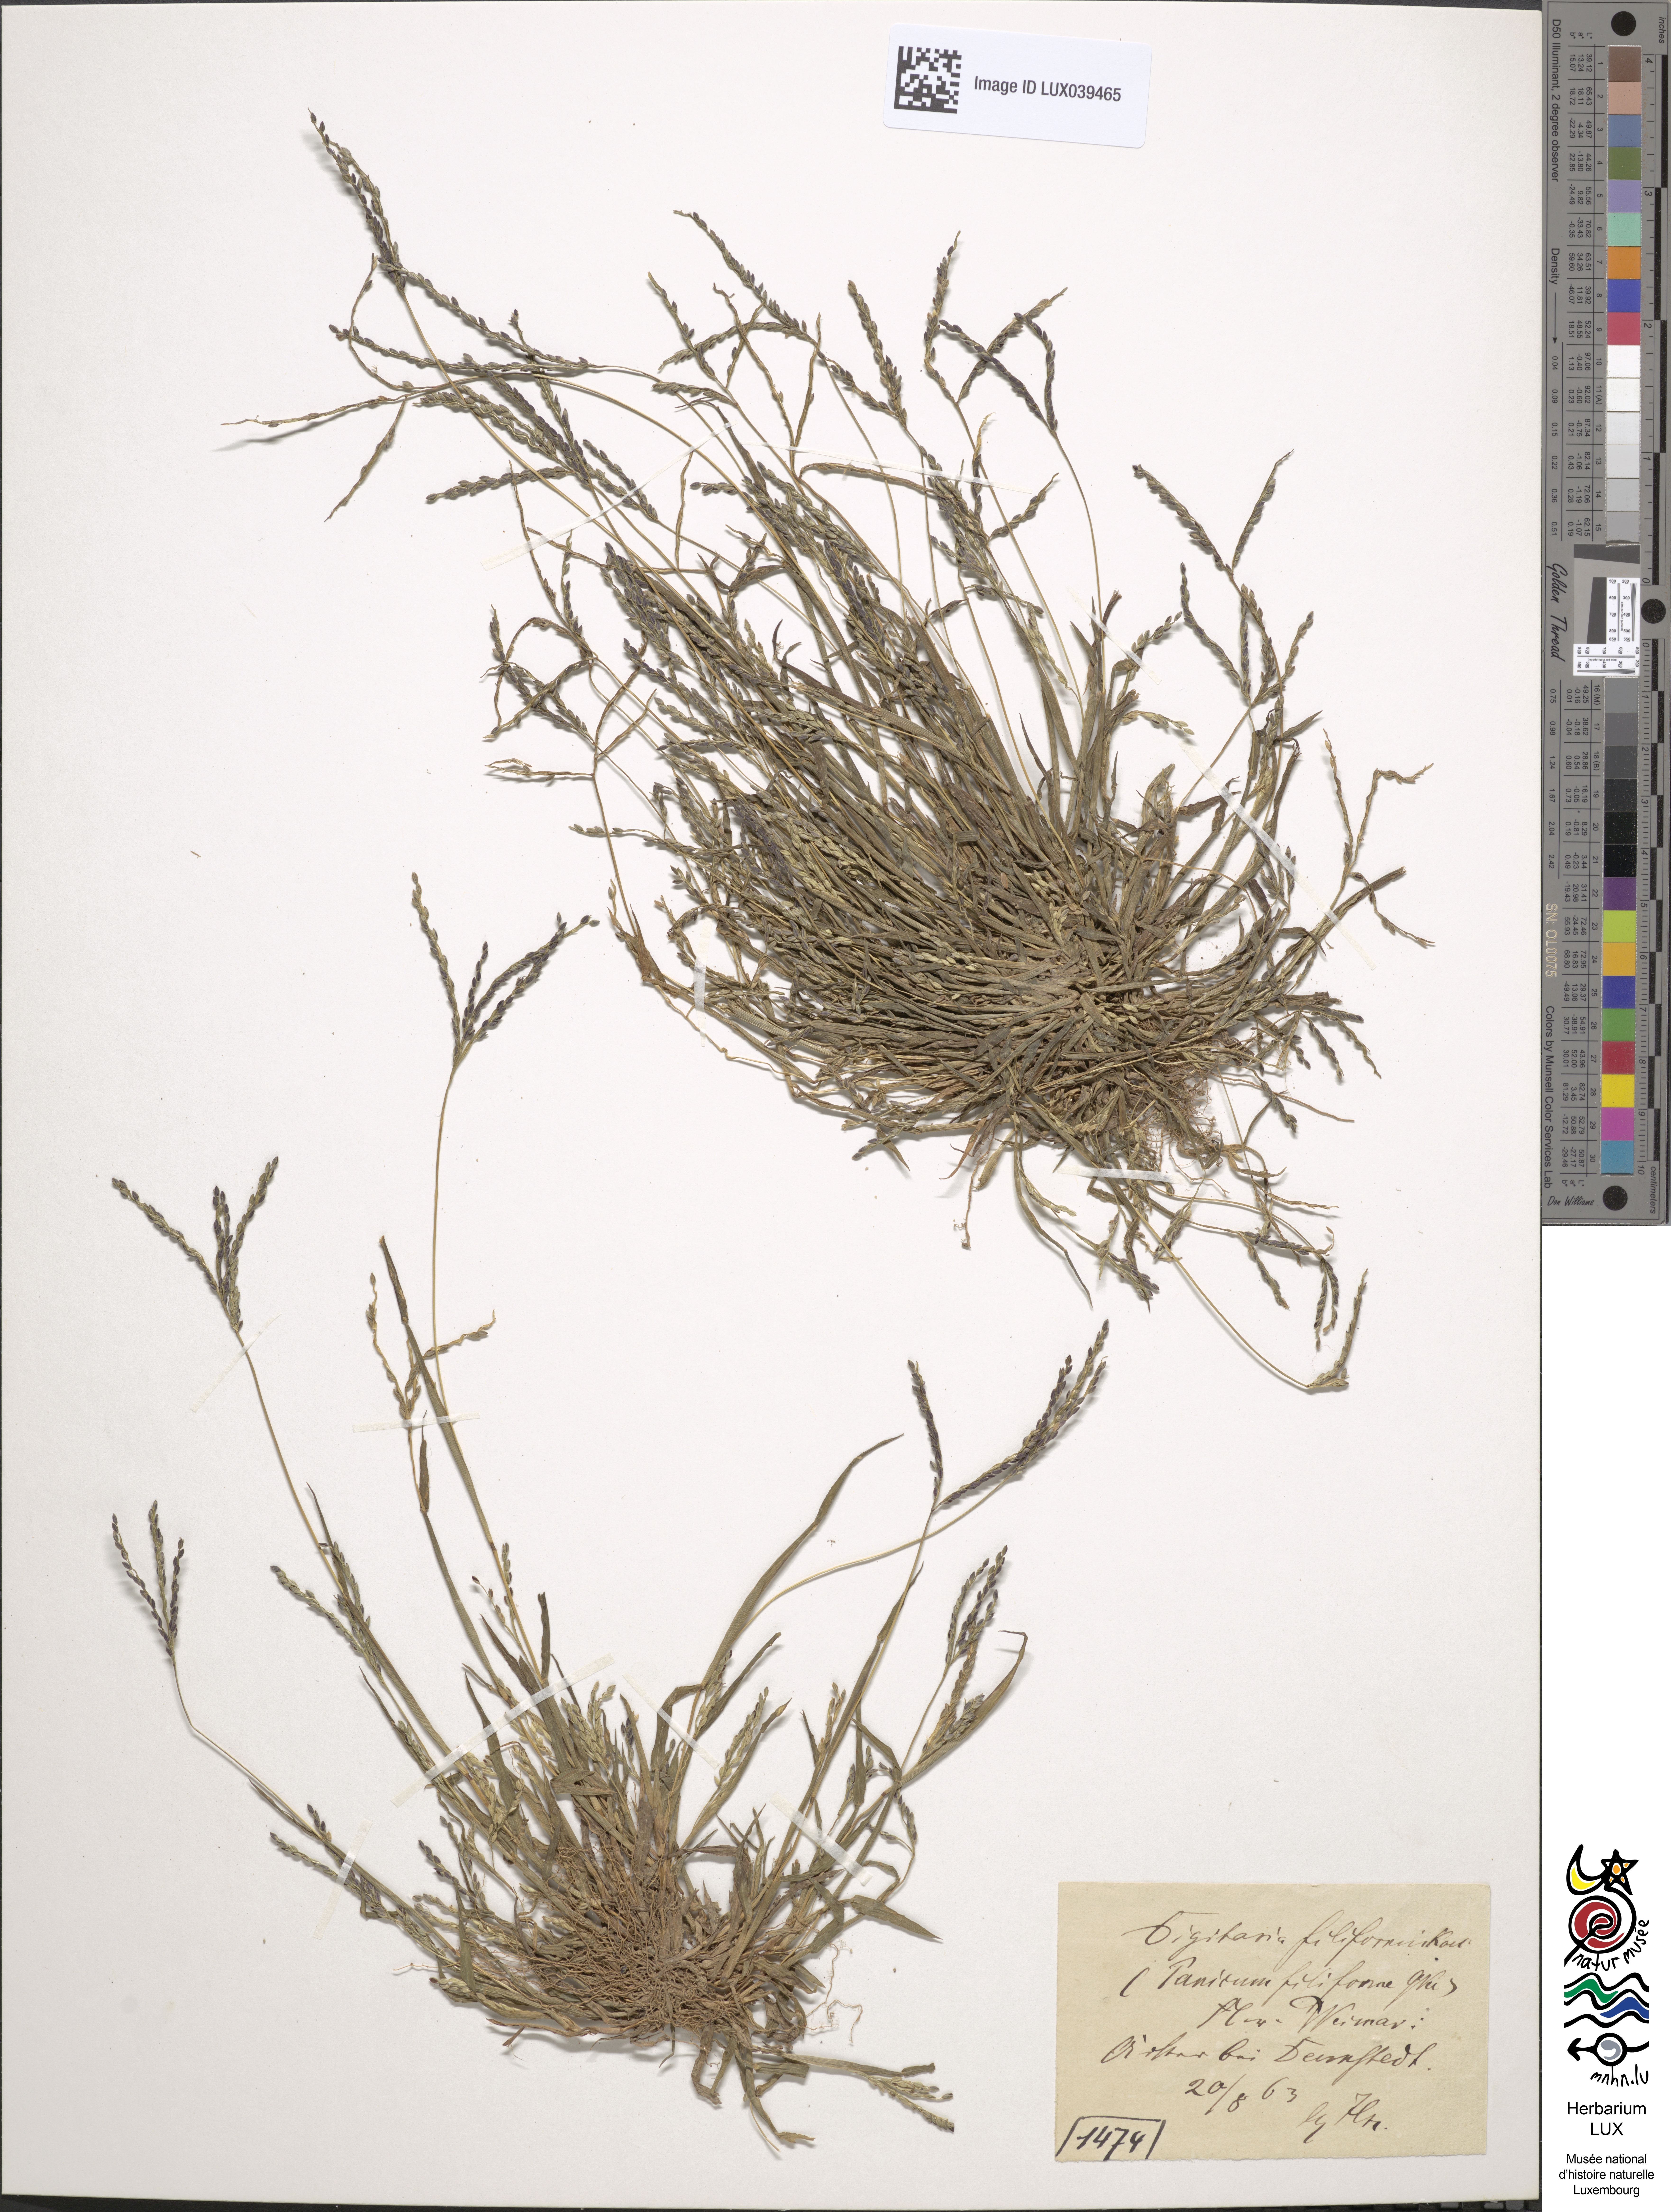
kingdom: Plantae
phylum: Tracheophyta
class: Liliopsida
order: Poales
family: Poaceae
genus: Digitaria
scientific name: Digitaria ischaemum
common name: Smooth crabgrass
